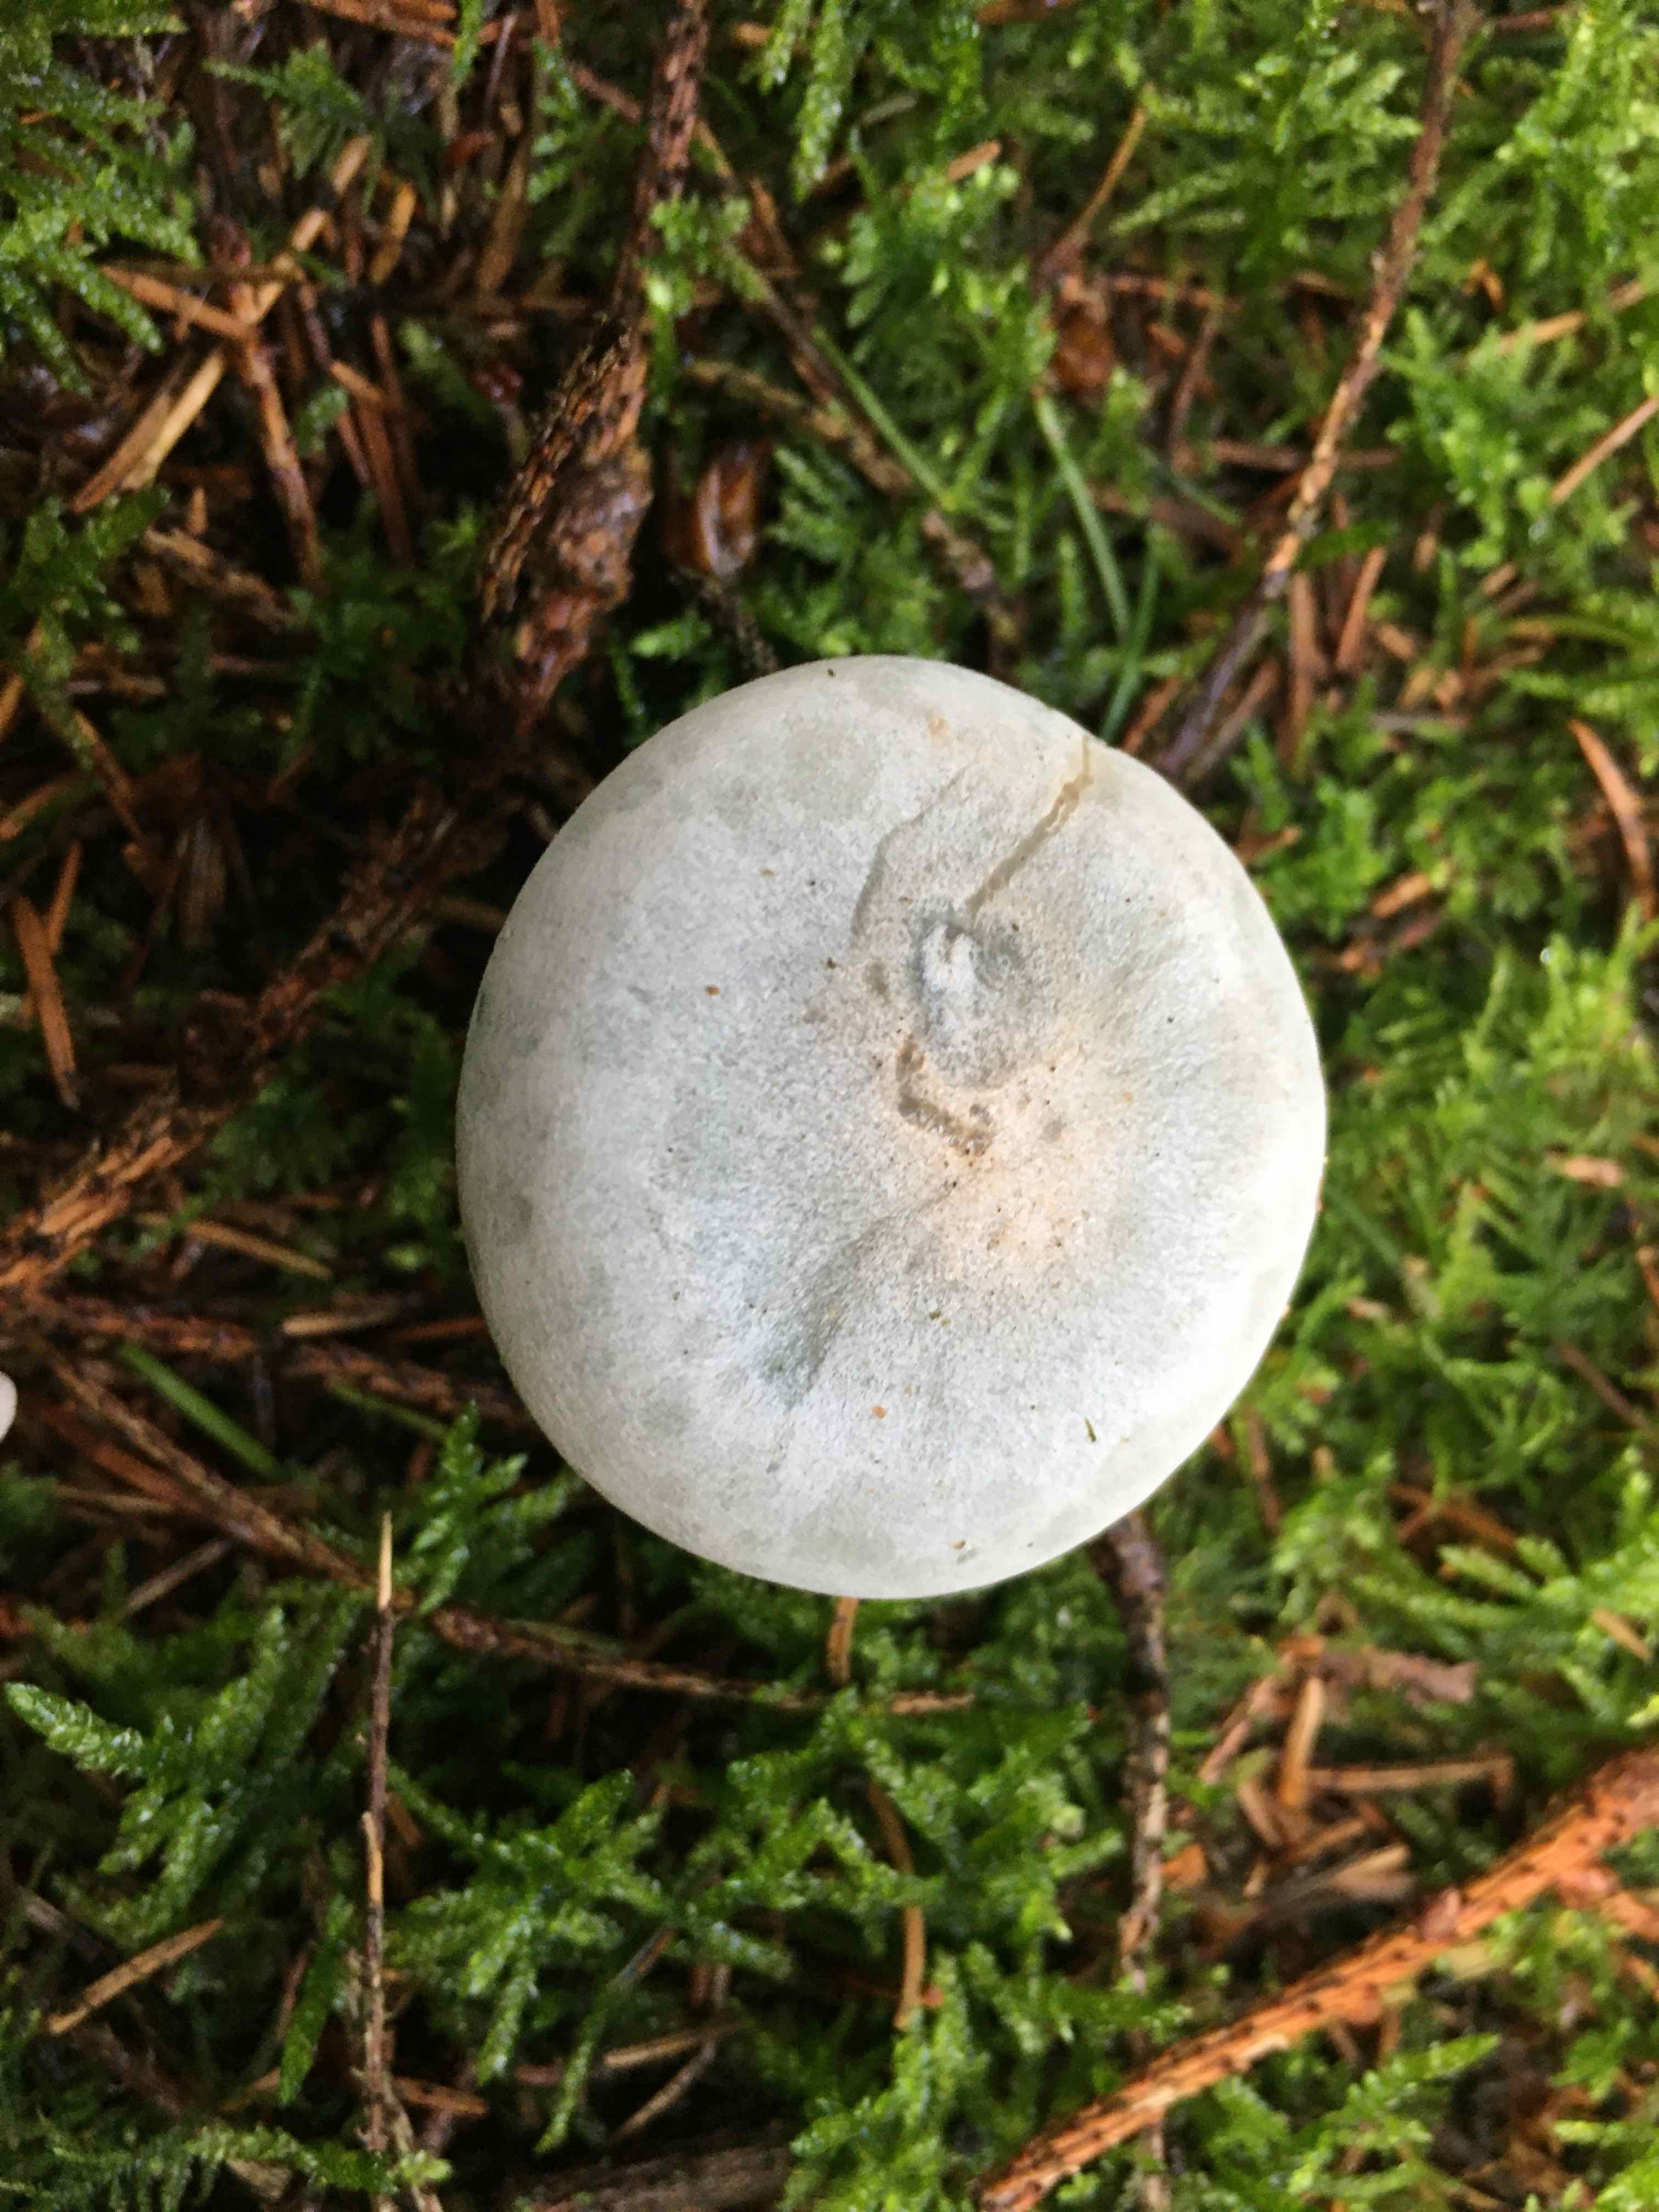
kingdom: Fungi
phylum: Basidiomycota
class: Agaricomycetes
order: Agaricales
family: Tricholomataceae
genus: Clitocybe
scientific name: Clitocybe odora
